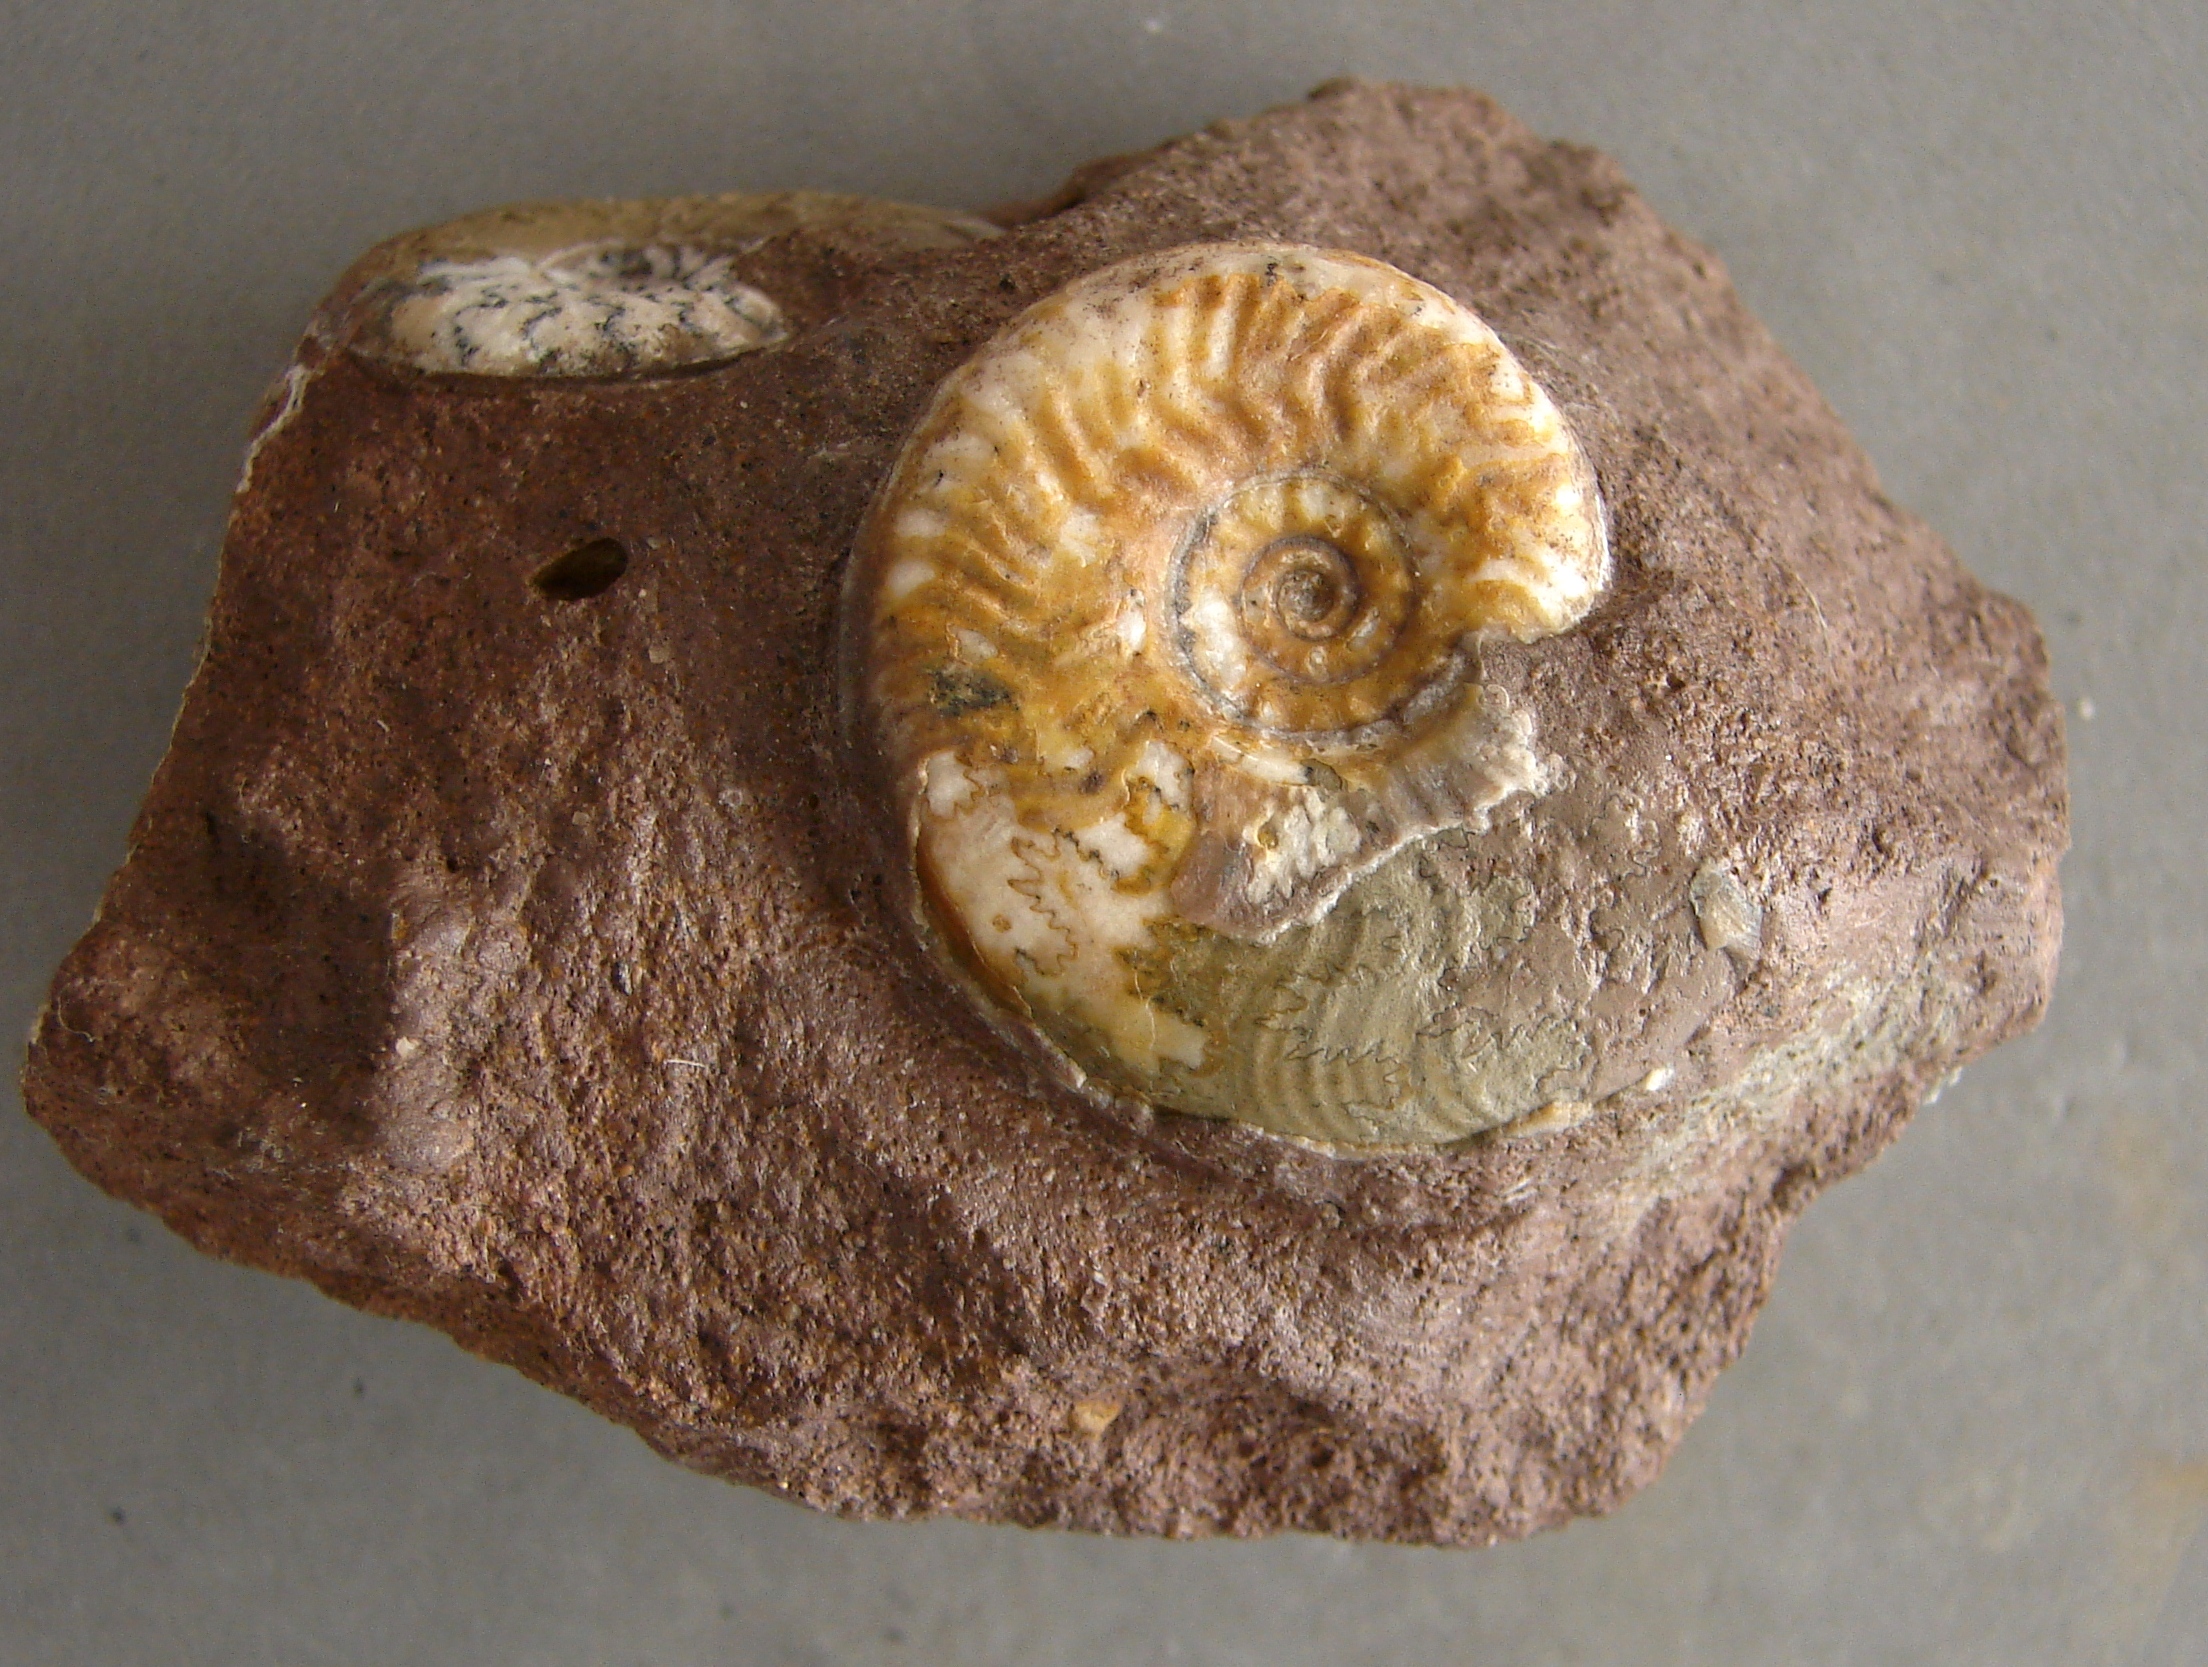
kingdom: Animalia
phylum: Mollusca
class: Cephalopoda
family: Graphoceratidae
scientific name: Graphoceratidae
